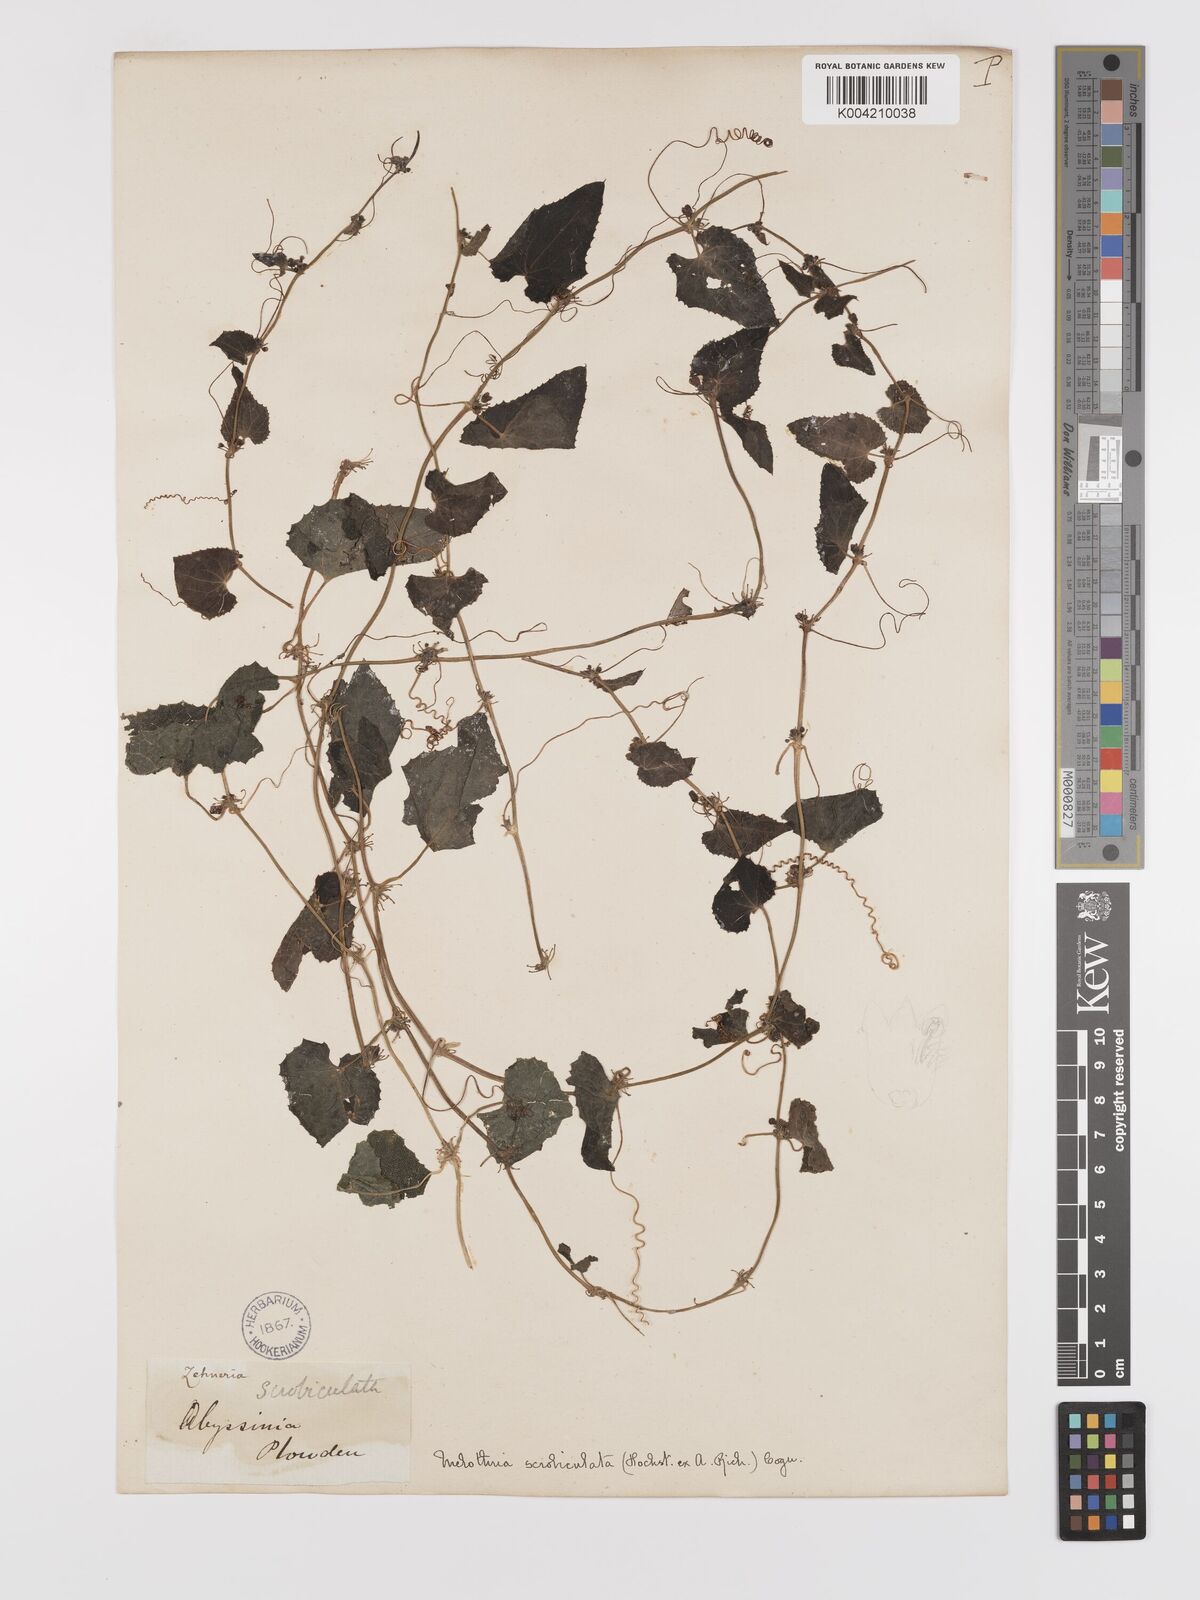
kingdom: Plantae
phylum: Tracheophyta
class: Magnoliopsida
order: Cucurbitales
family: Cucurbitaceae
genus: Zehneria
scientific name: Zehneria scabra
